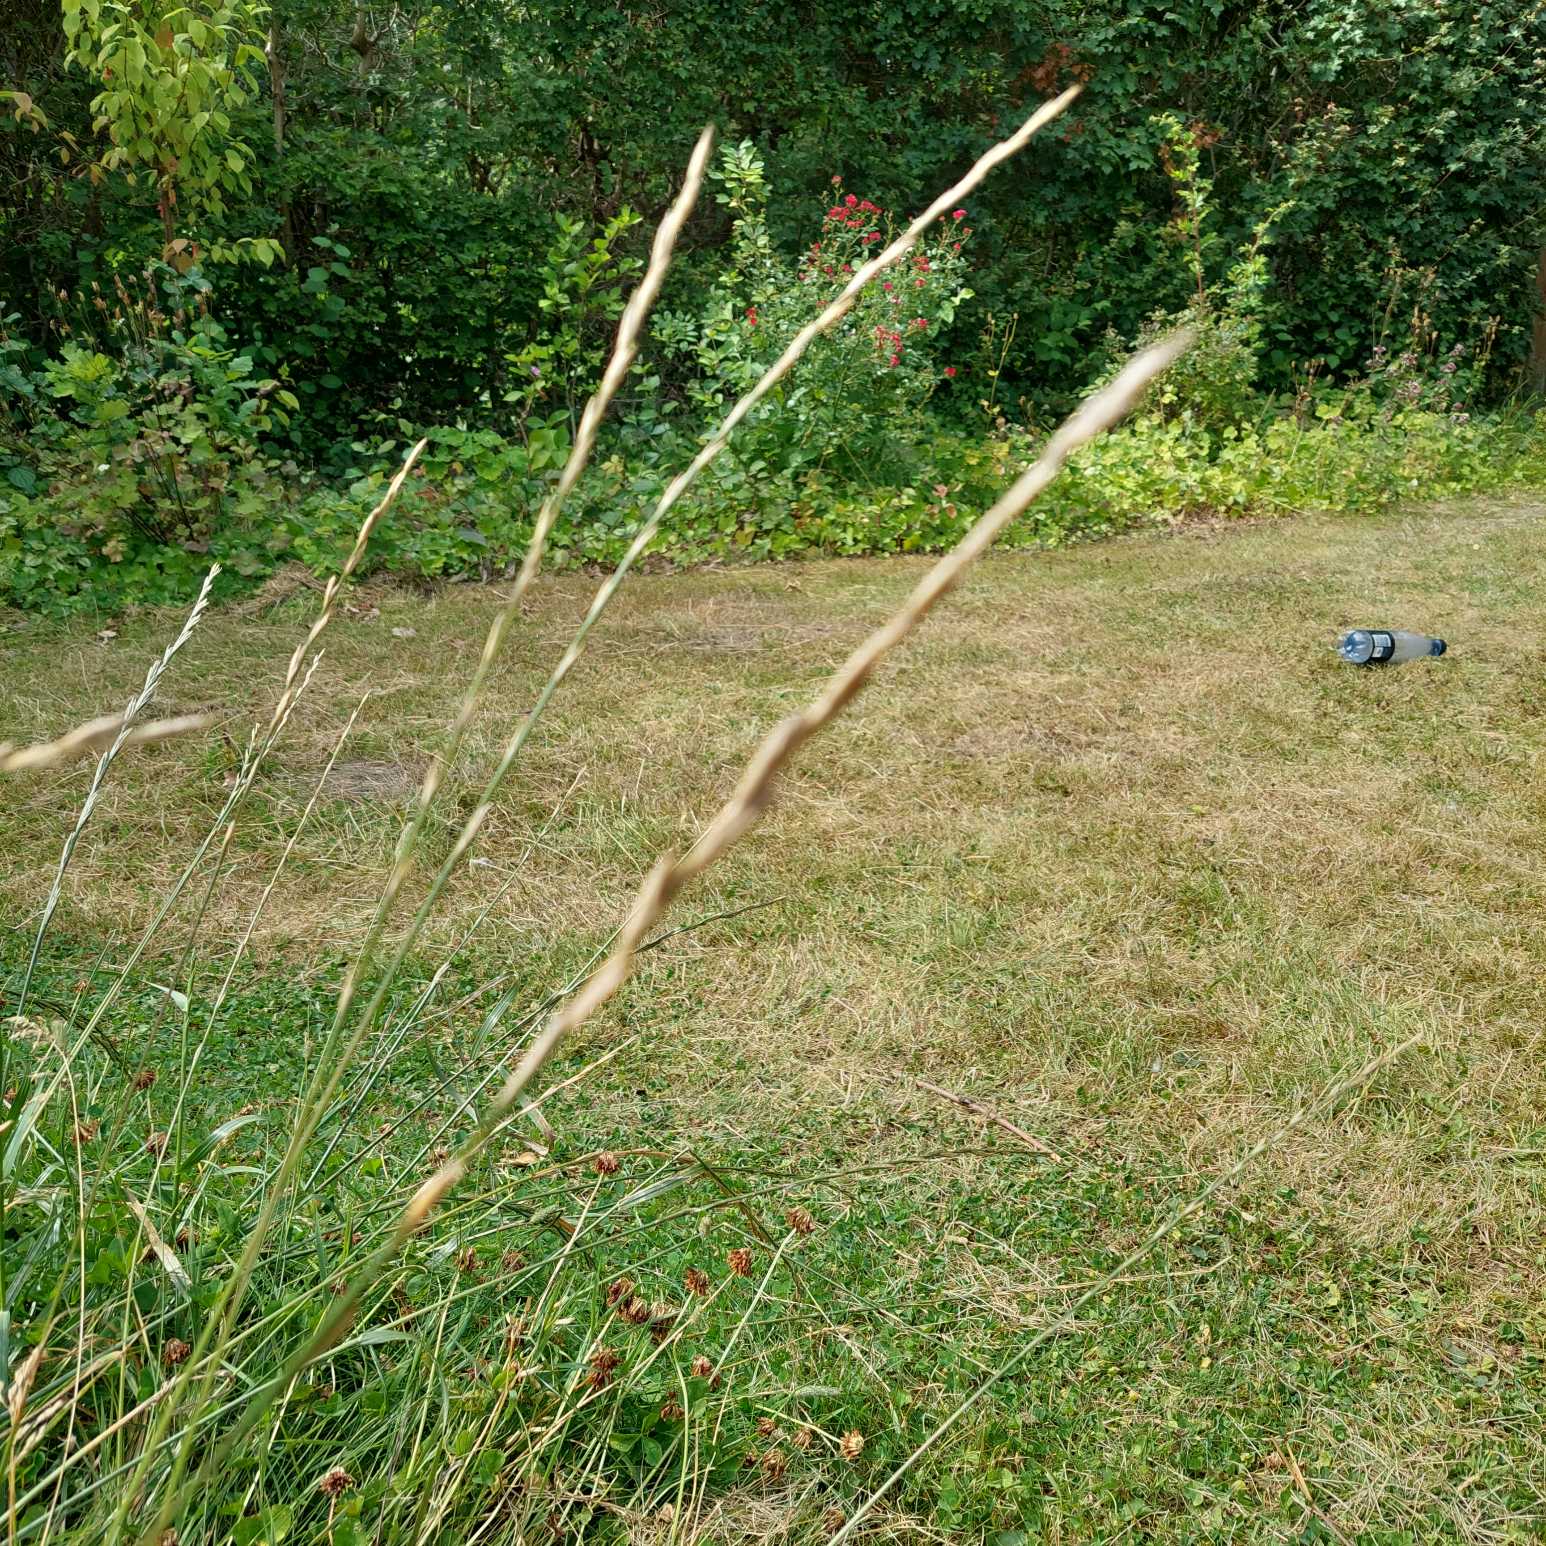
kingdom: Plantae
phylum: Tracheophyta
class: Liliopsida
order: Poales
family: Poaceae
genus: Lolium
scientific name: Lolium perenne
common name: Almindelig rajgræs
